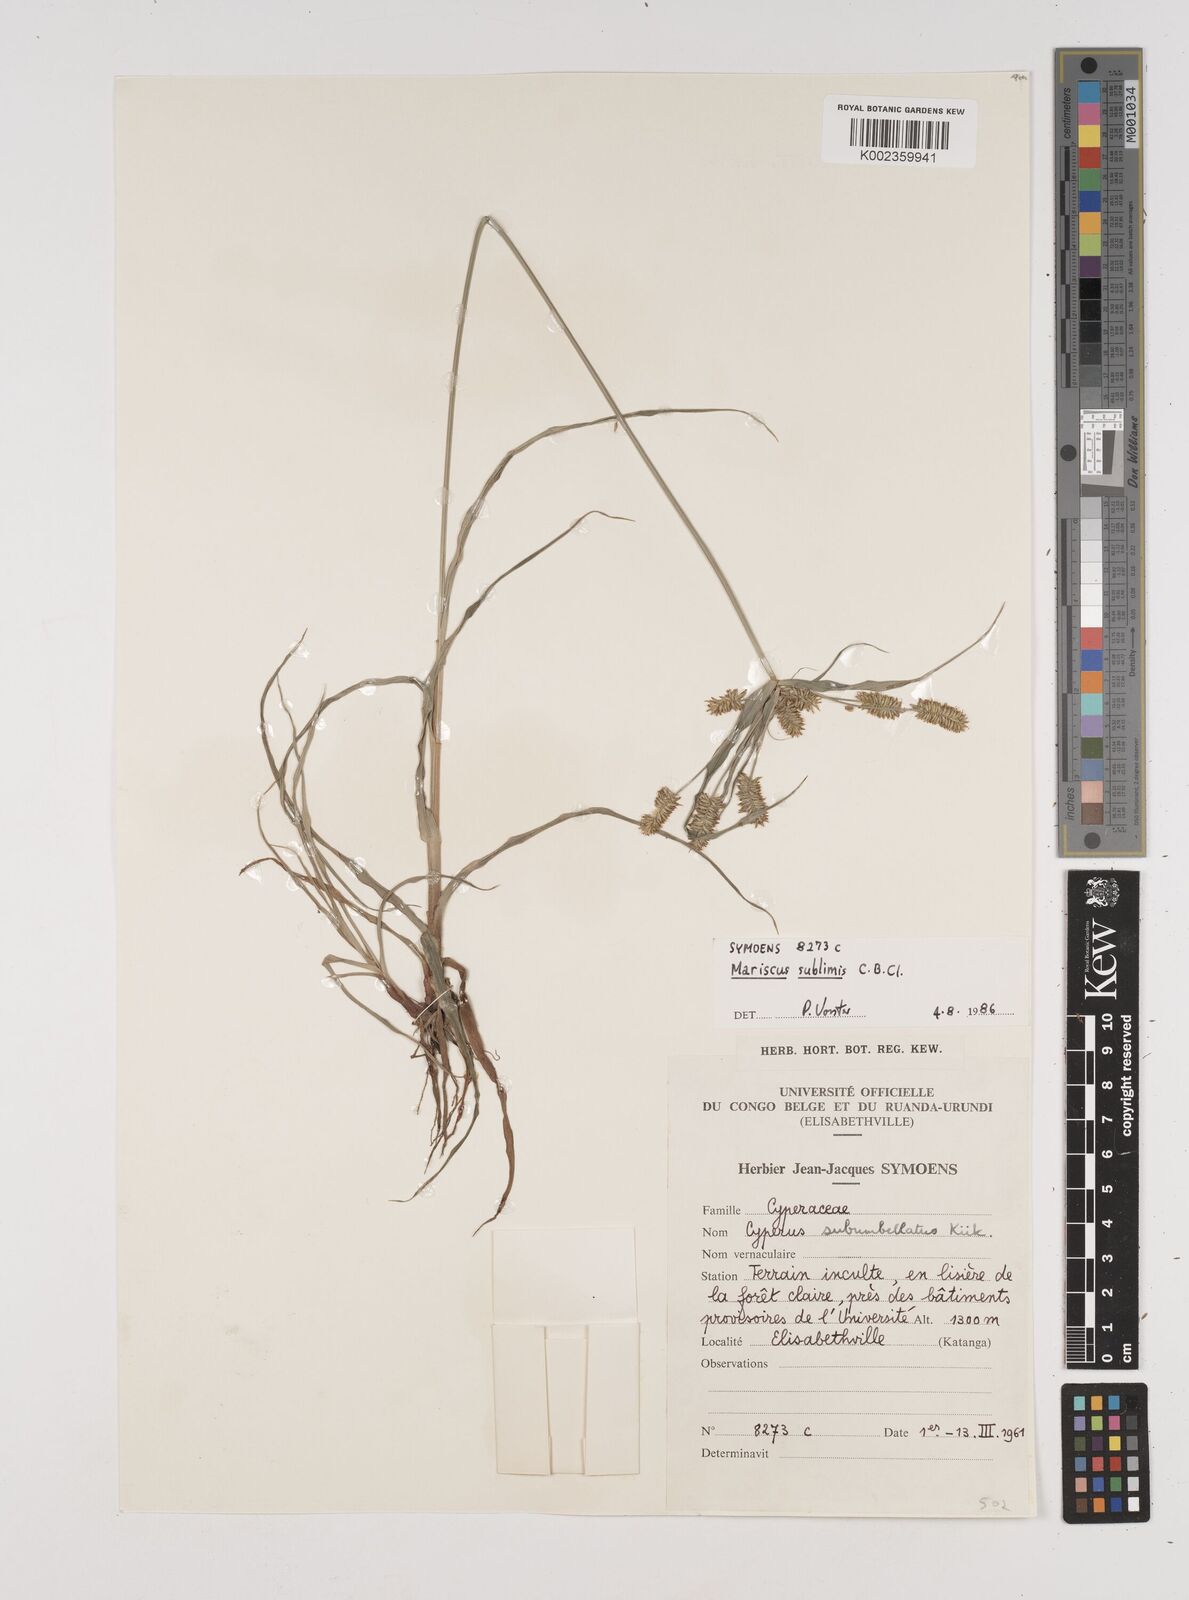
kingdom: Plantae
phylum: Tracheophyta
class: Liliopsida
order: Poales
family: Cyperaceae
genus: Cyperus
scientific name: Cyperus cyperoides
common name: Pacific island flat sedge
